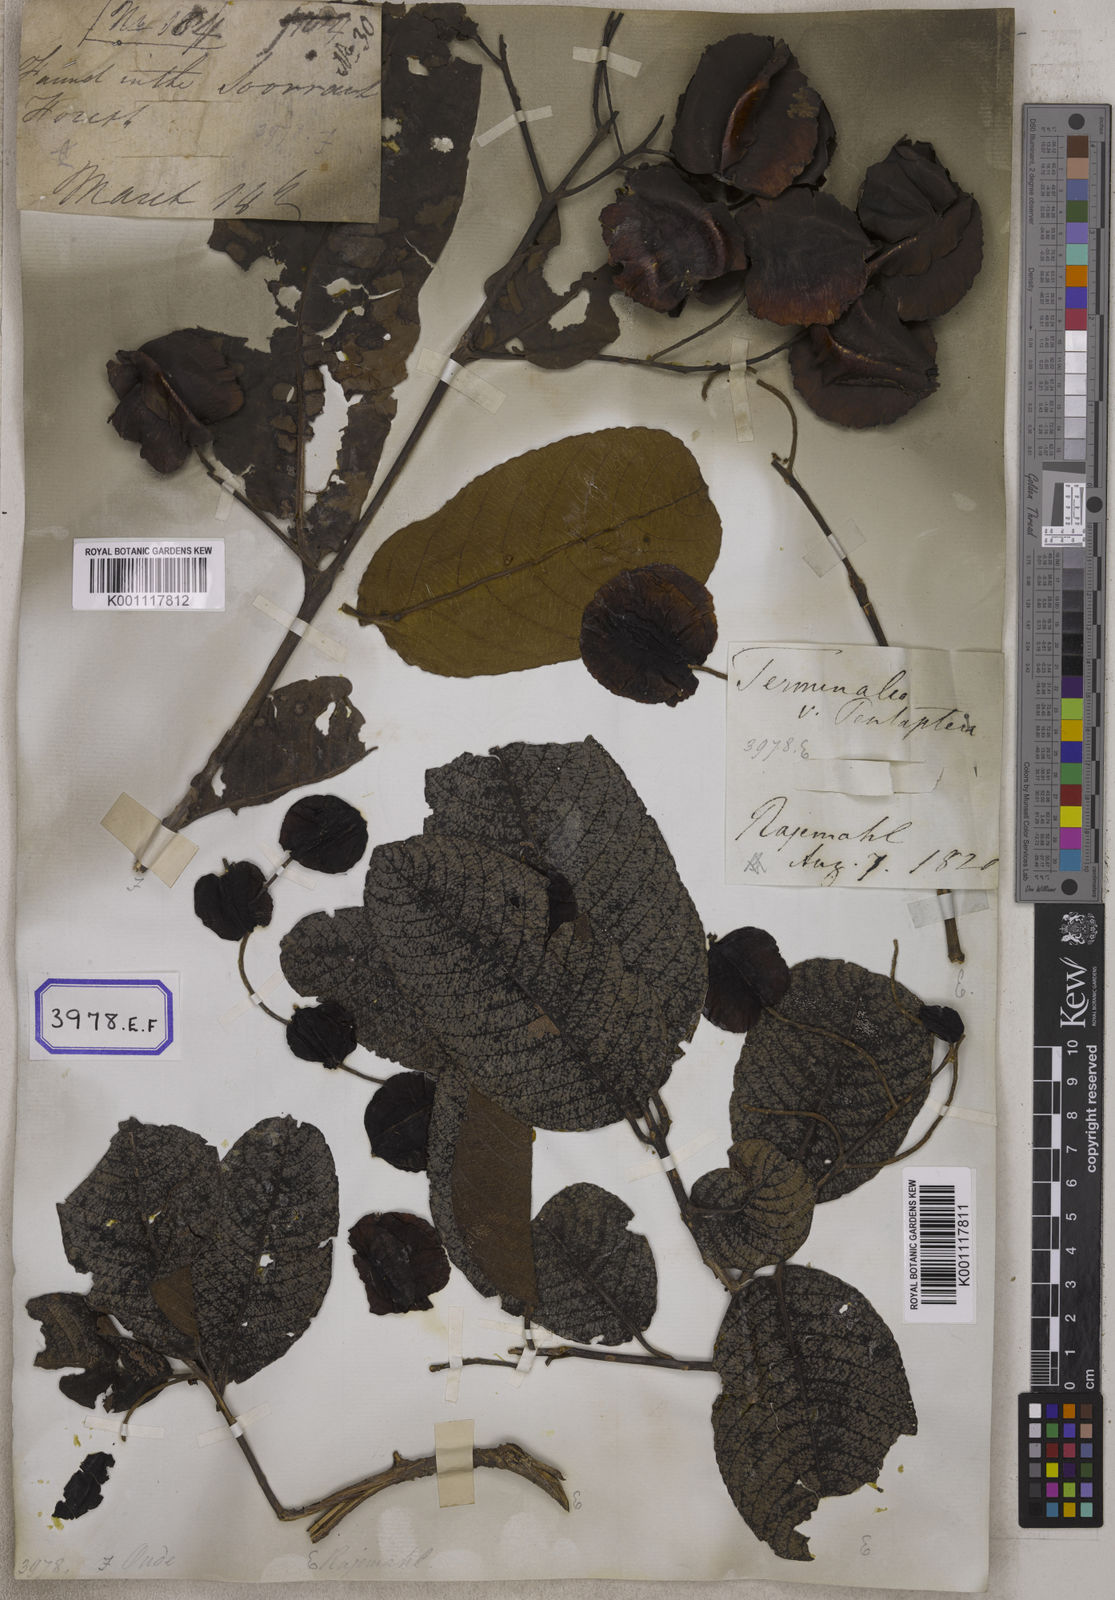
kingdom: Plantae
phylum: Tracheophyta
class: Magnoliopsida
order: Myrtales
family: Combretaceae
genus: Terminalia
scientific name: Terminalia
